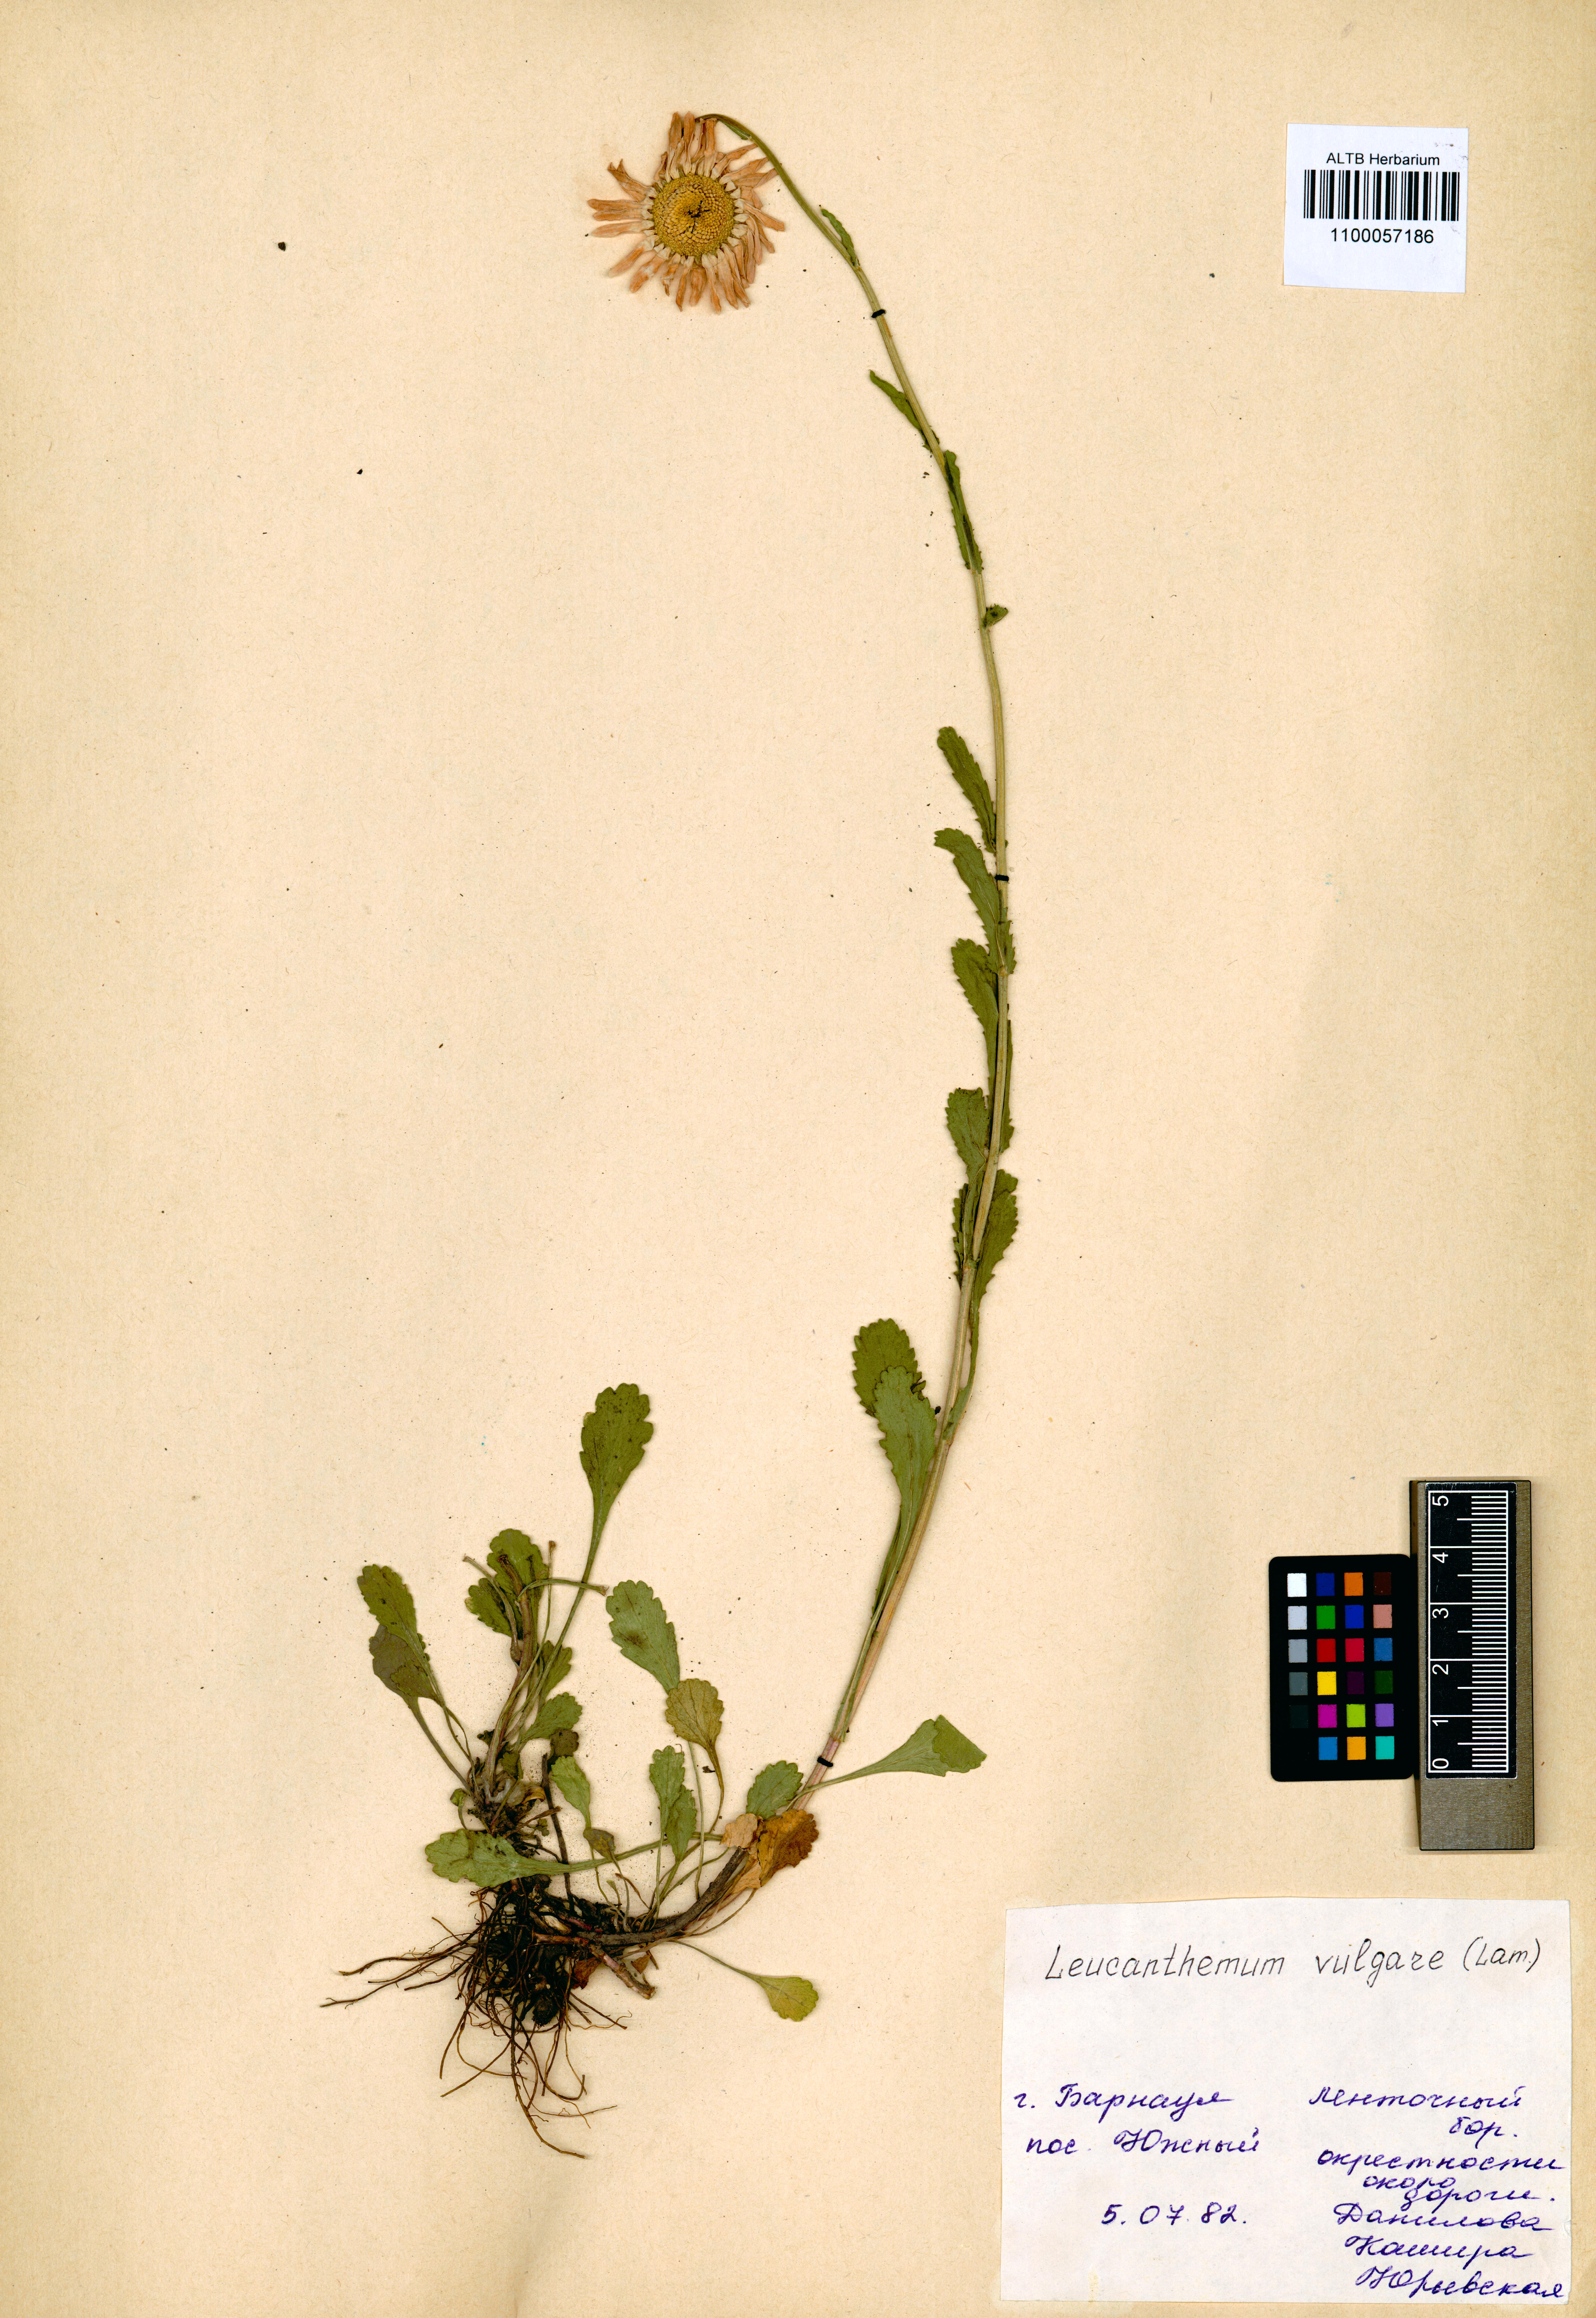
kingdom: Plantae
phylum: Tracheophyta
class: Magnoliopsida
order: Asterales
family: Asteraceae
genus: Leucanthemum
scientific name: Leucanthemum vulgare
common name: Oxeye daisy
